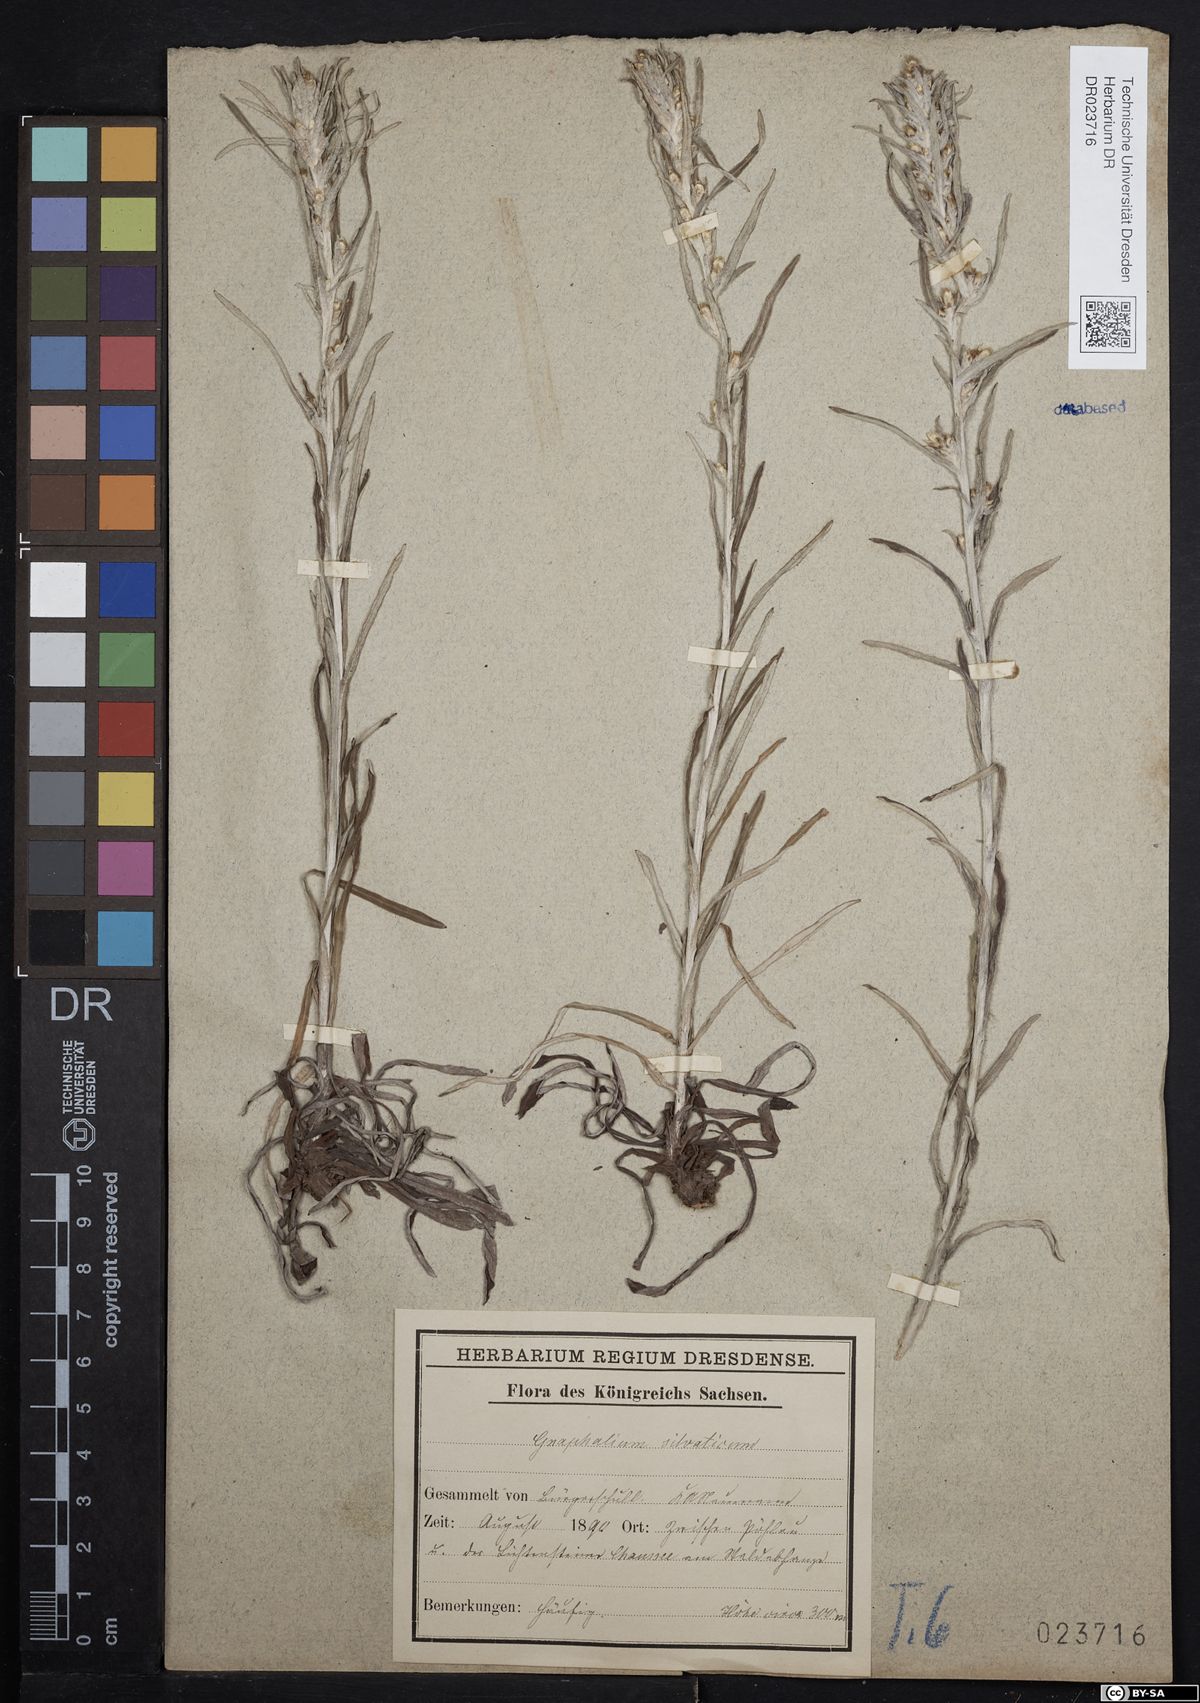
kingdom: Plantae
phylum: Tracheophyta
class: Magnoliopsida
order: Asterales
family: Asteraceae
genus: Omalotheca
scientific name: Omalotheca sylvatica
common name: Heath cudweed
